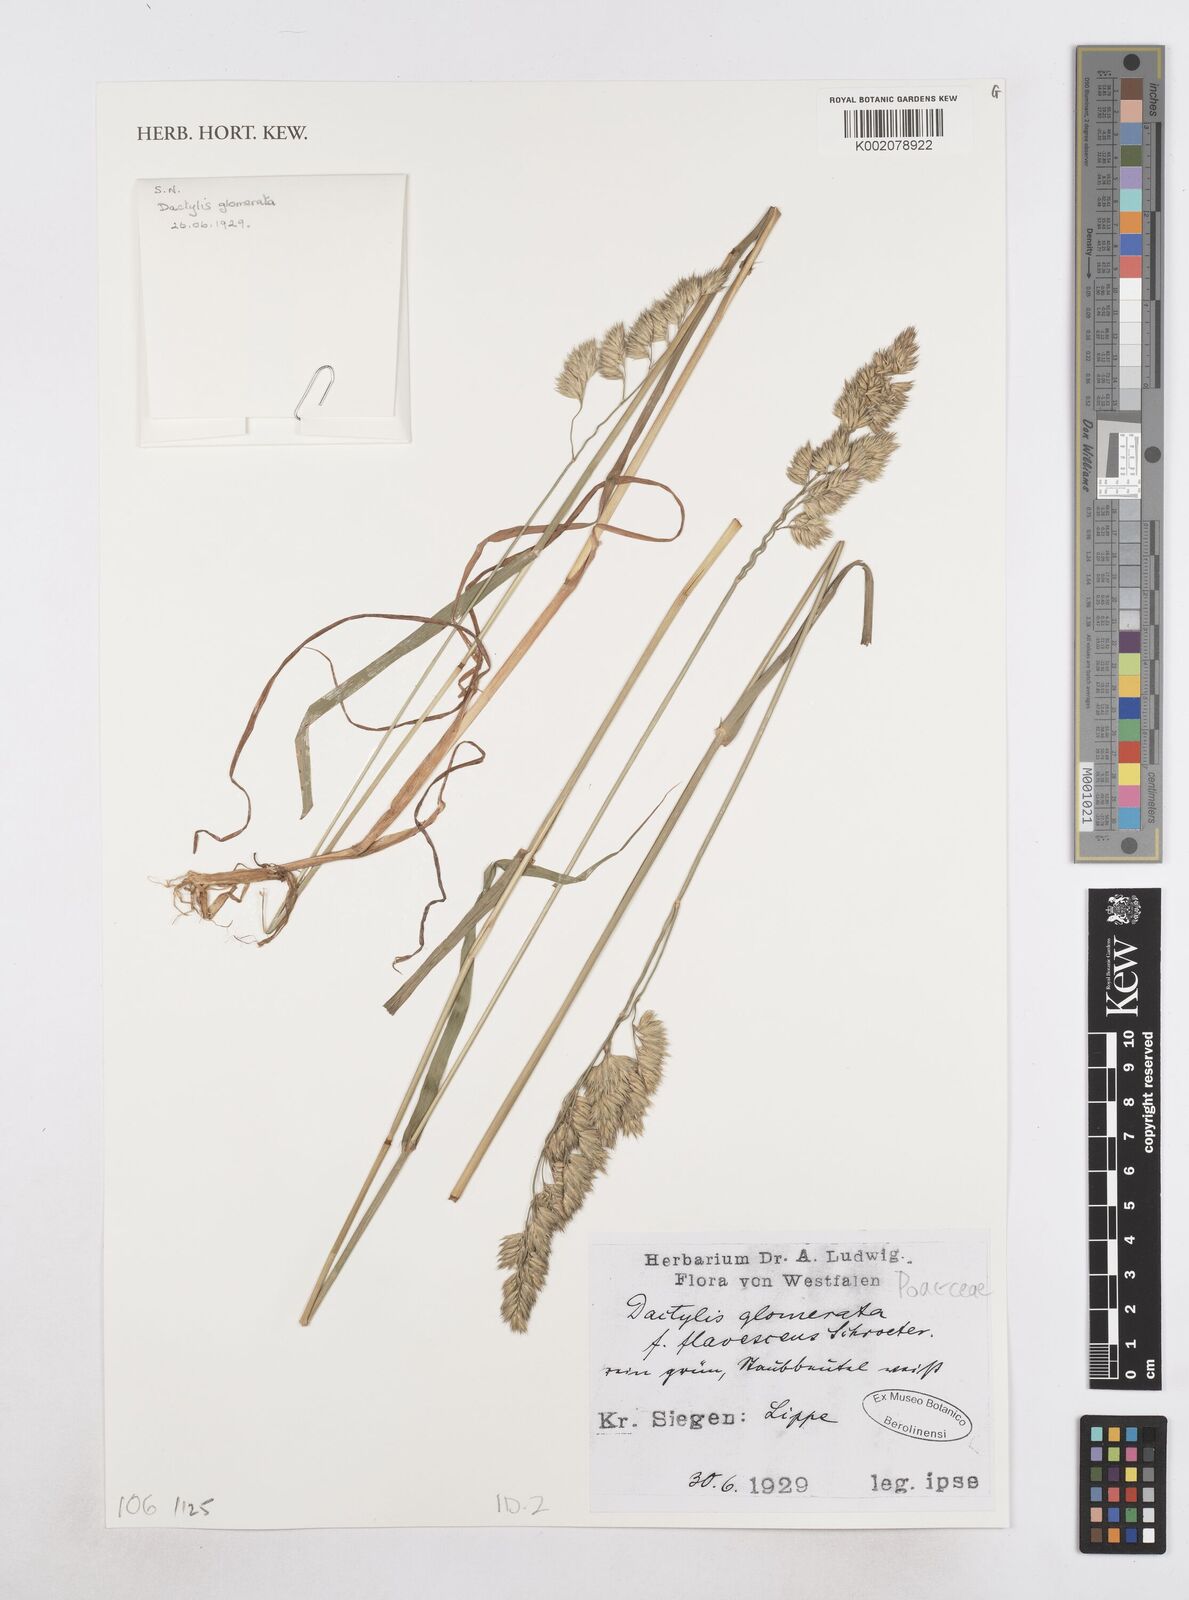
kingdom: Plantae
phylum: Tracheophyta
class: Liliopsida
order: Poales
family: Poaceae
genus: Dactylis
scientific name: Dactylis glomerata
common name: Orchardgrass
